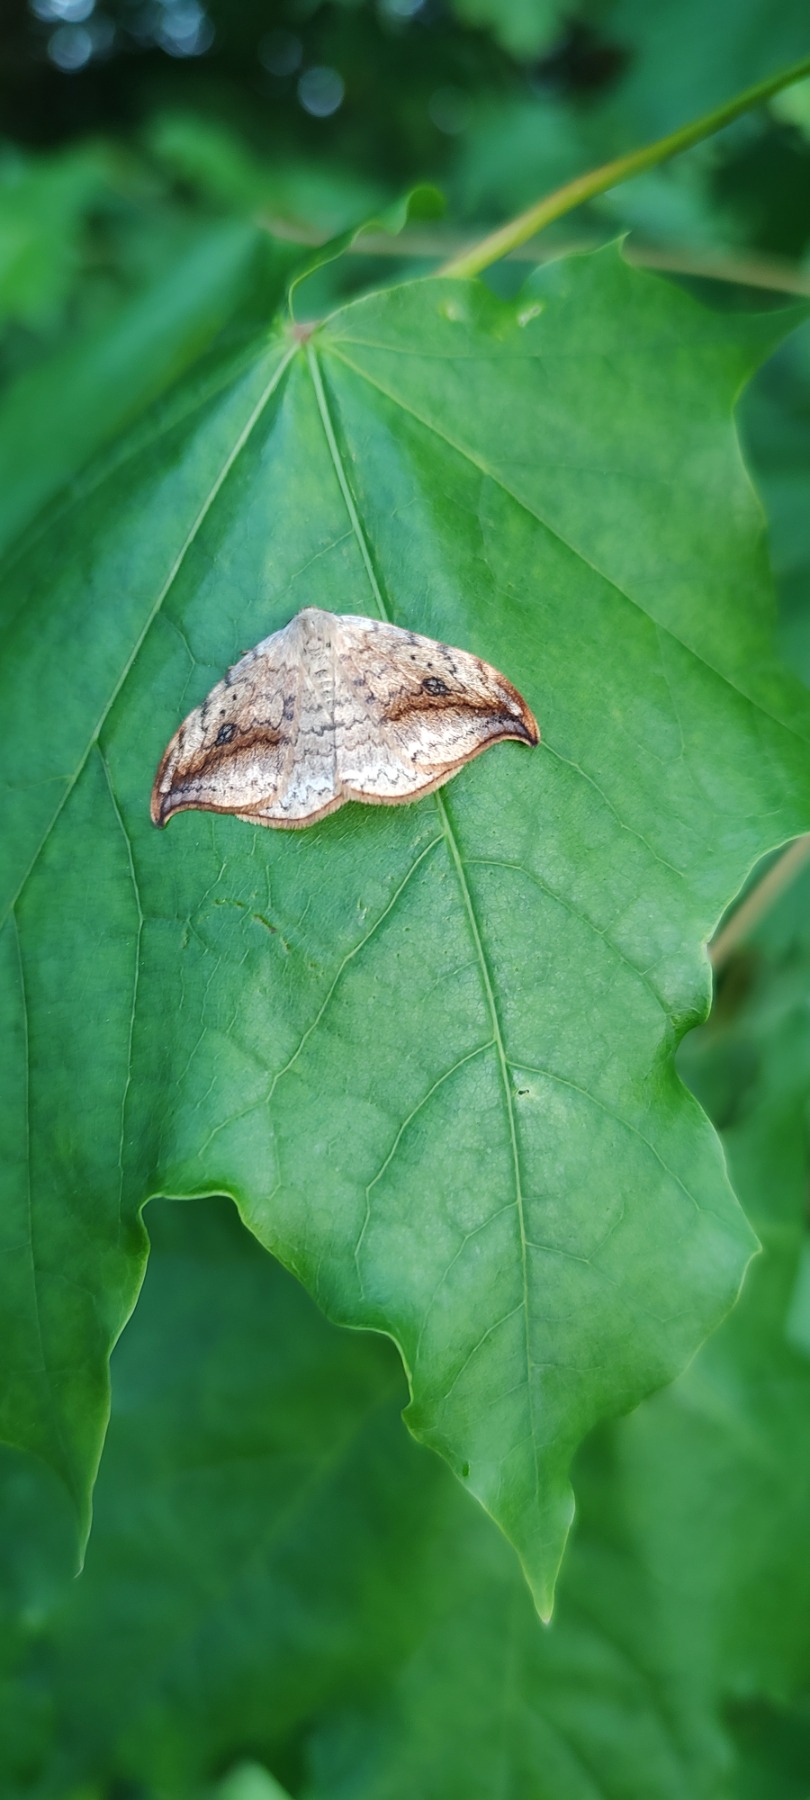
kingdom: Animalia
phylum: Arthropoda
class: Insecta
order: Lepidoptera
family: Drepanidae
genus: Drepana
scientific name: Drepana falcataria
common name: Birkeseglvinge
